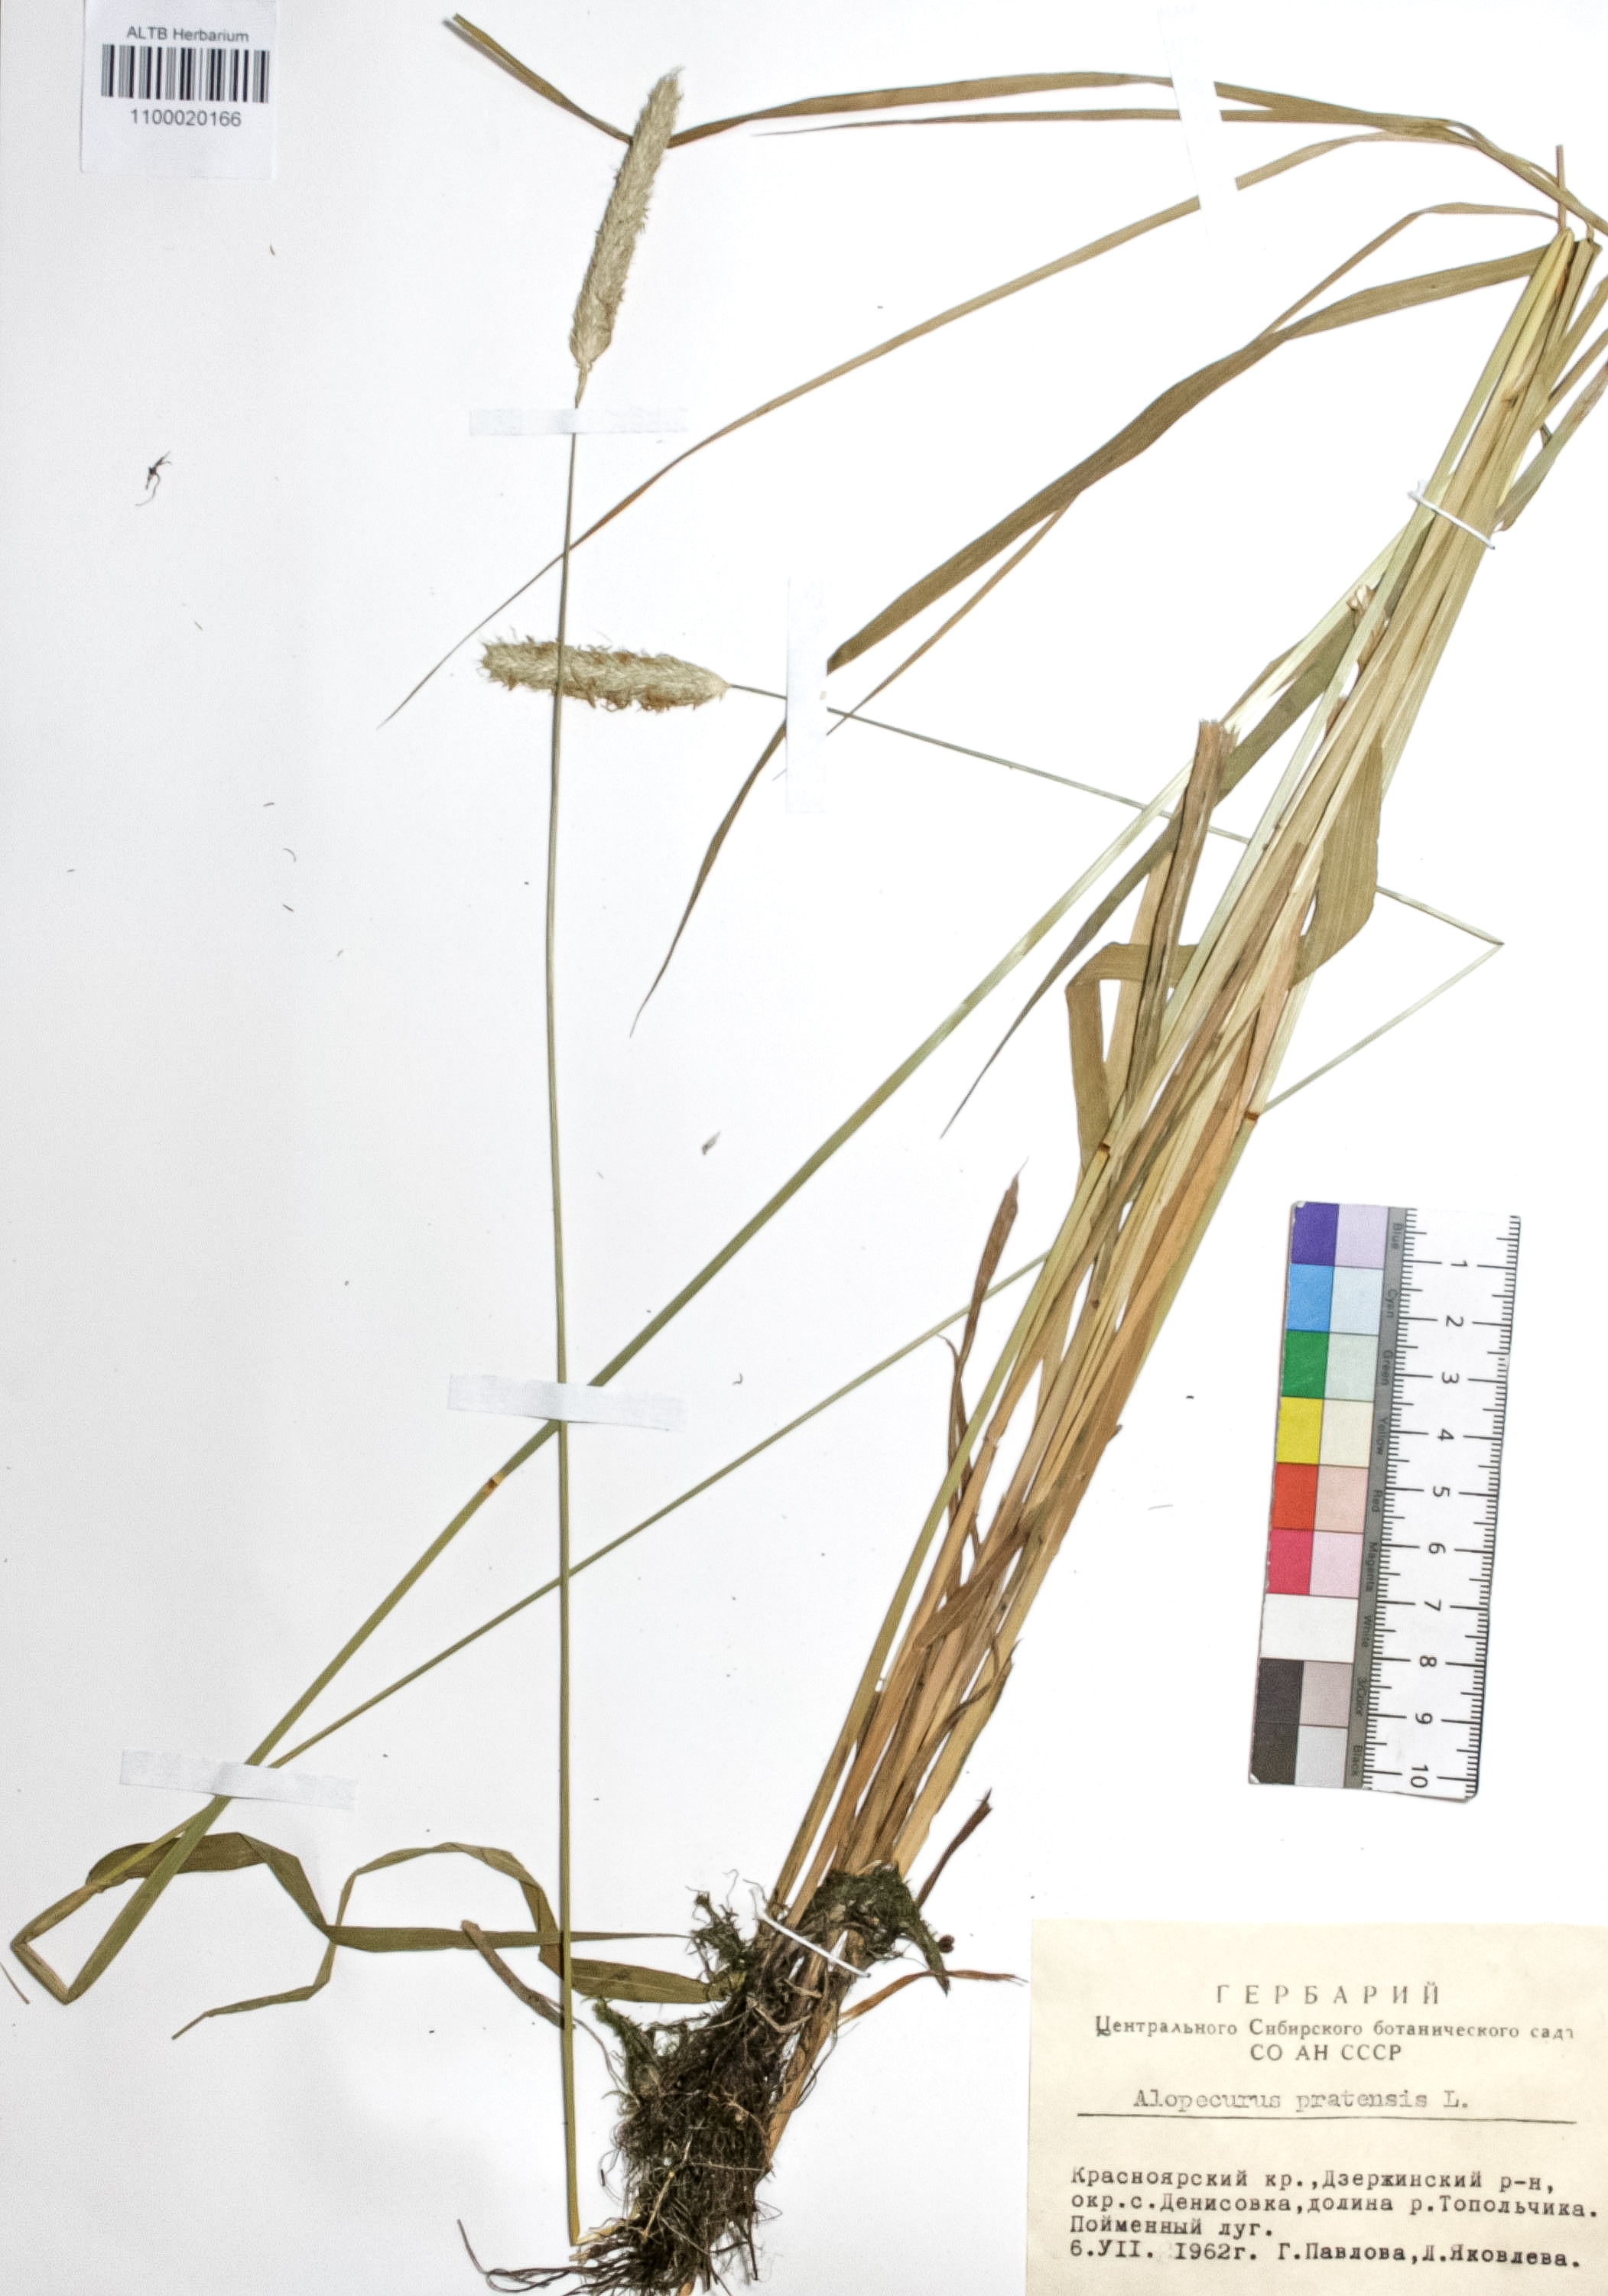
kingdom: Plantae
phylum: Tracheophyta
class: Liliopsida
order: Poales
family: Poaceae
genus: Alopecurus
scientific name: Alopecurus pratensis
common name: Meadow foxtail
